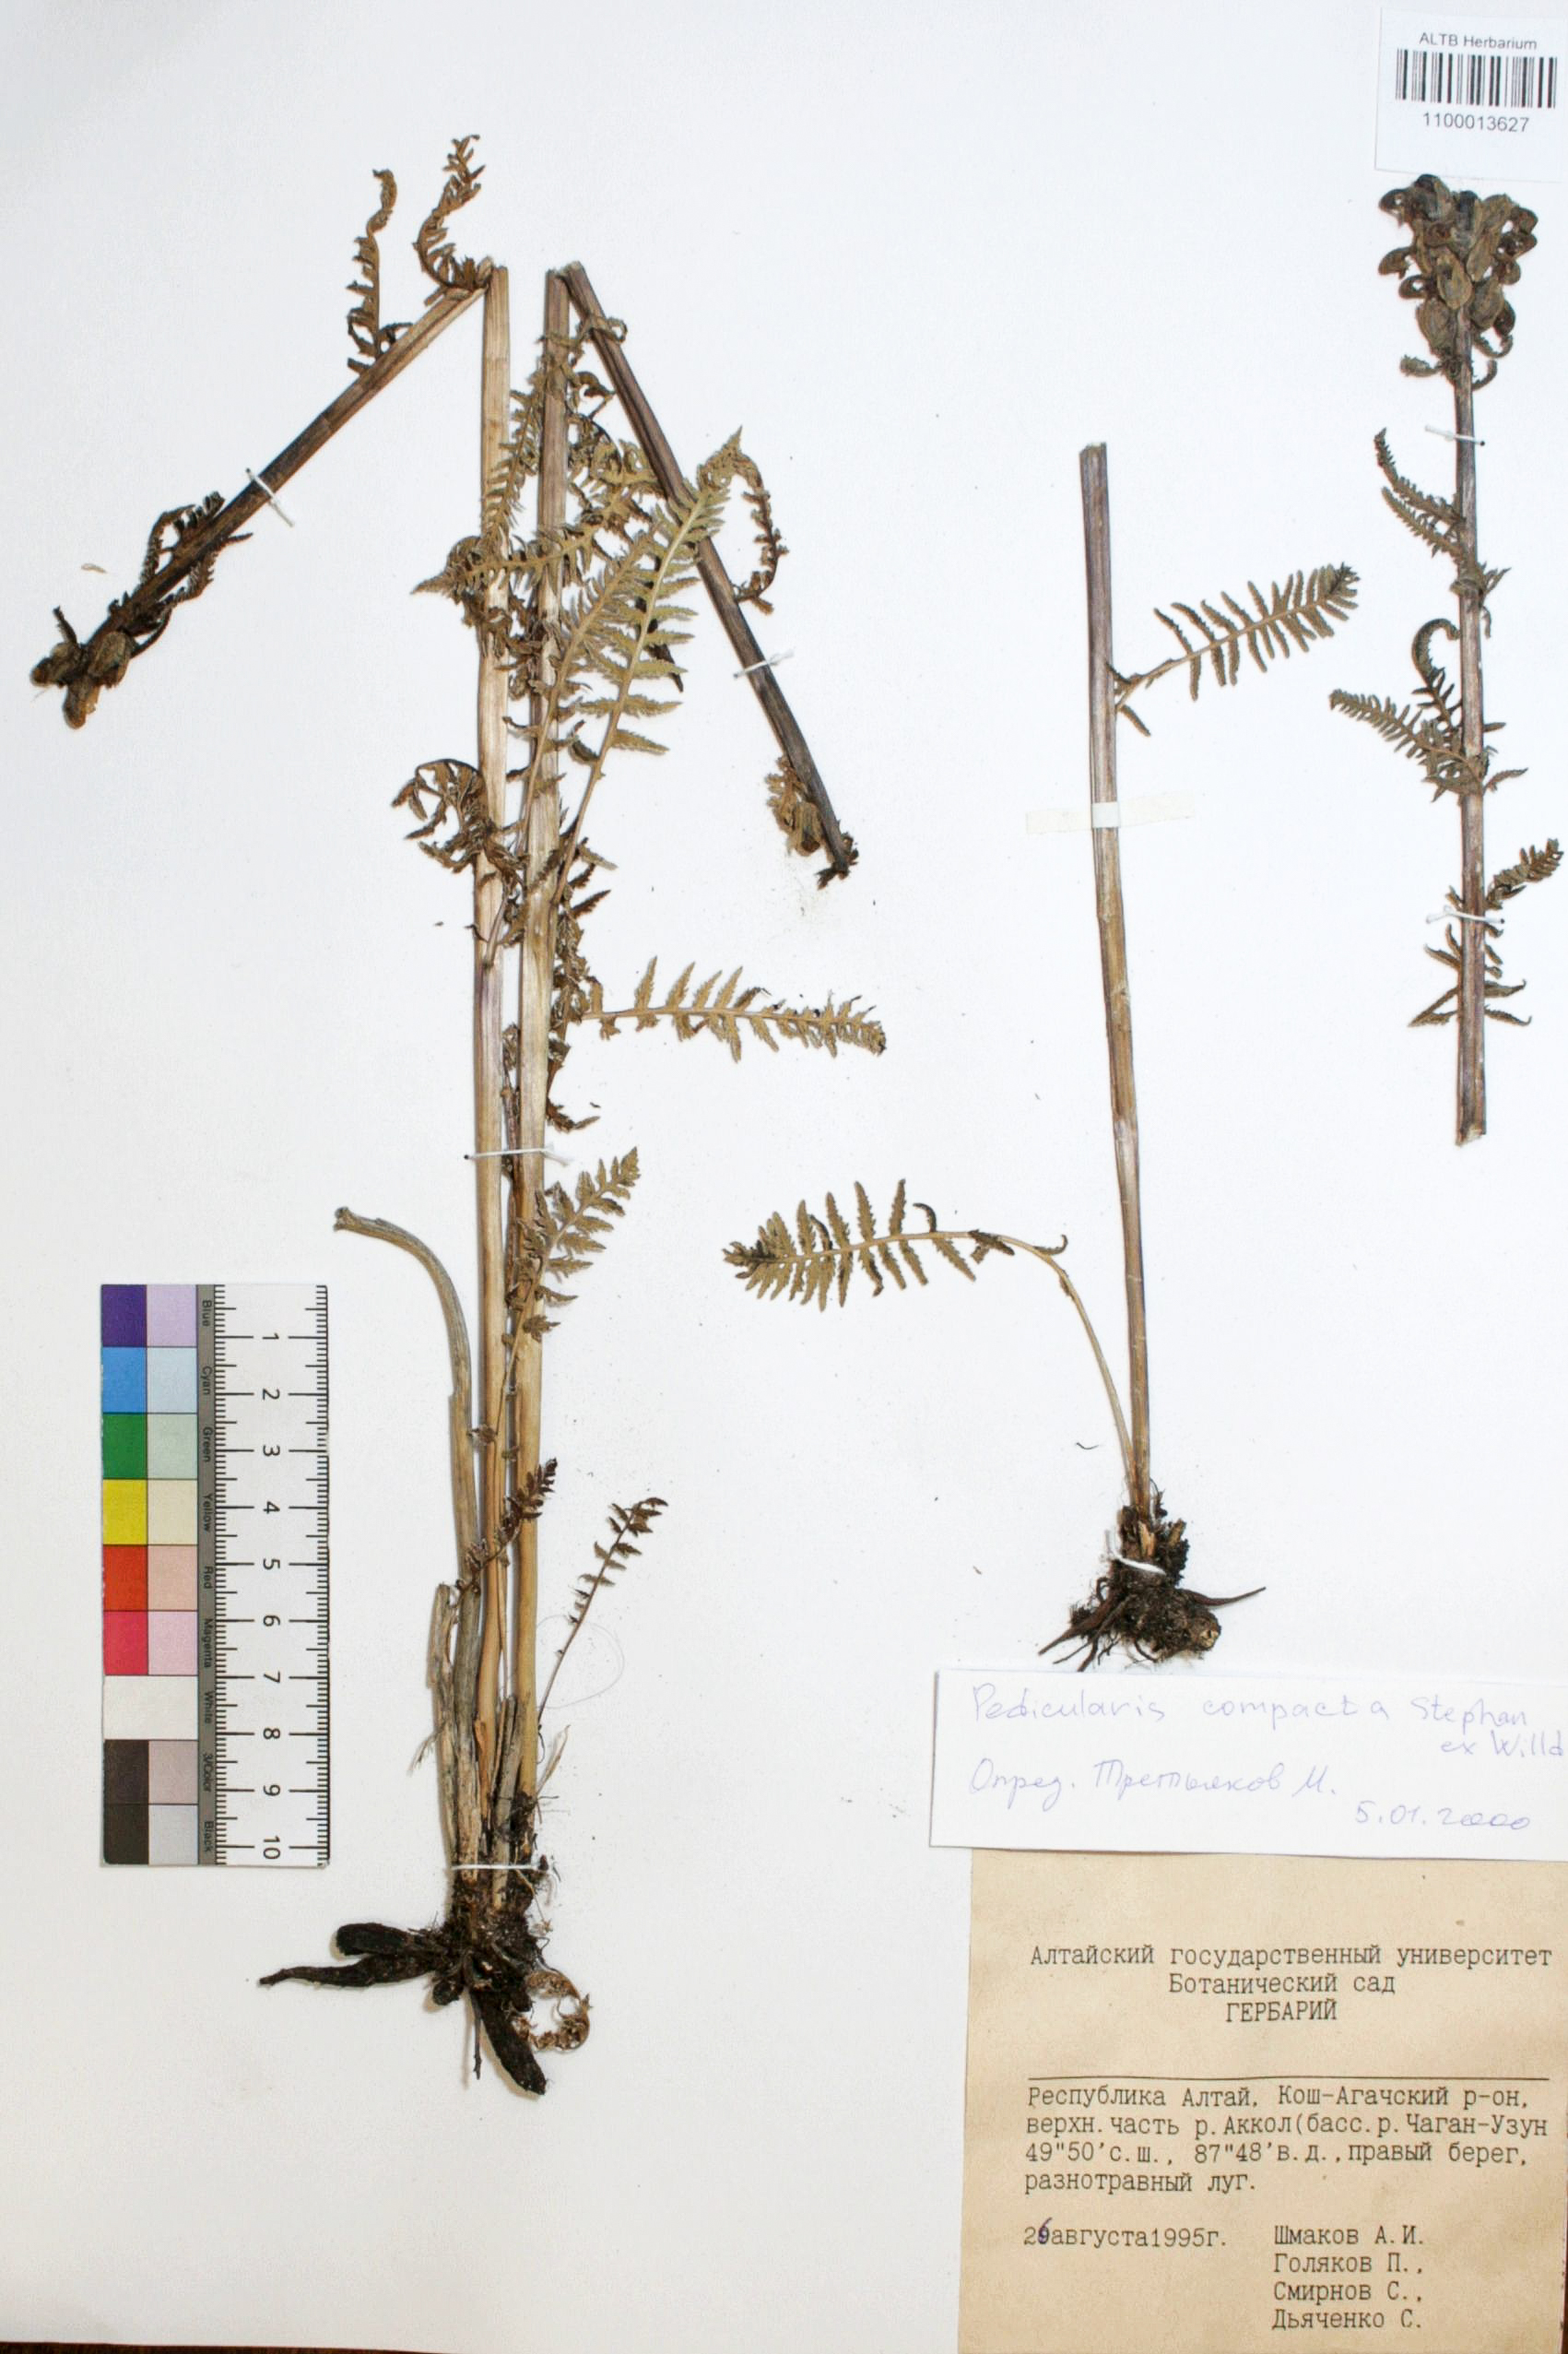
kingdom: Plantae
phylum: Tracheophyta
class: Magnoliopsida
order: Lamiales
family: Orobanchaceae
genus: Pedicularis
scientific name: Pedicularis compacta
